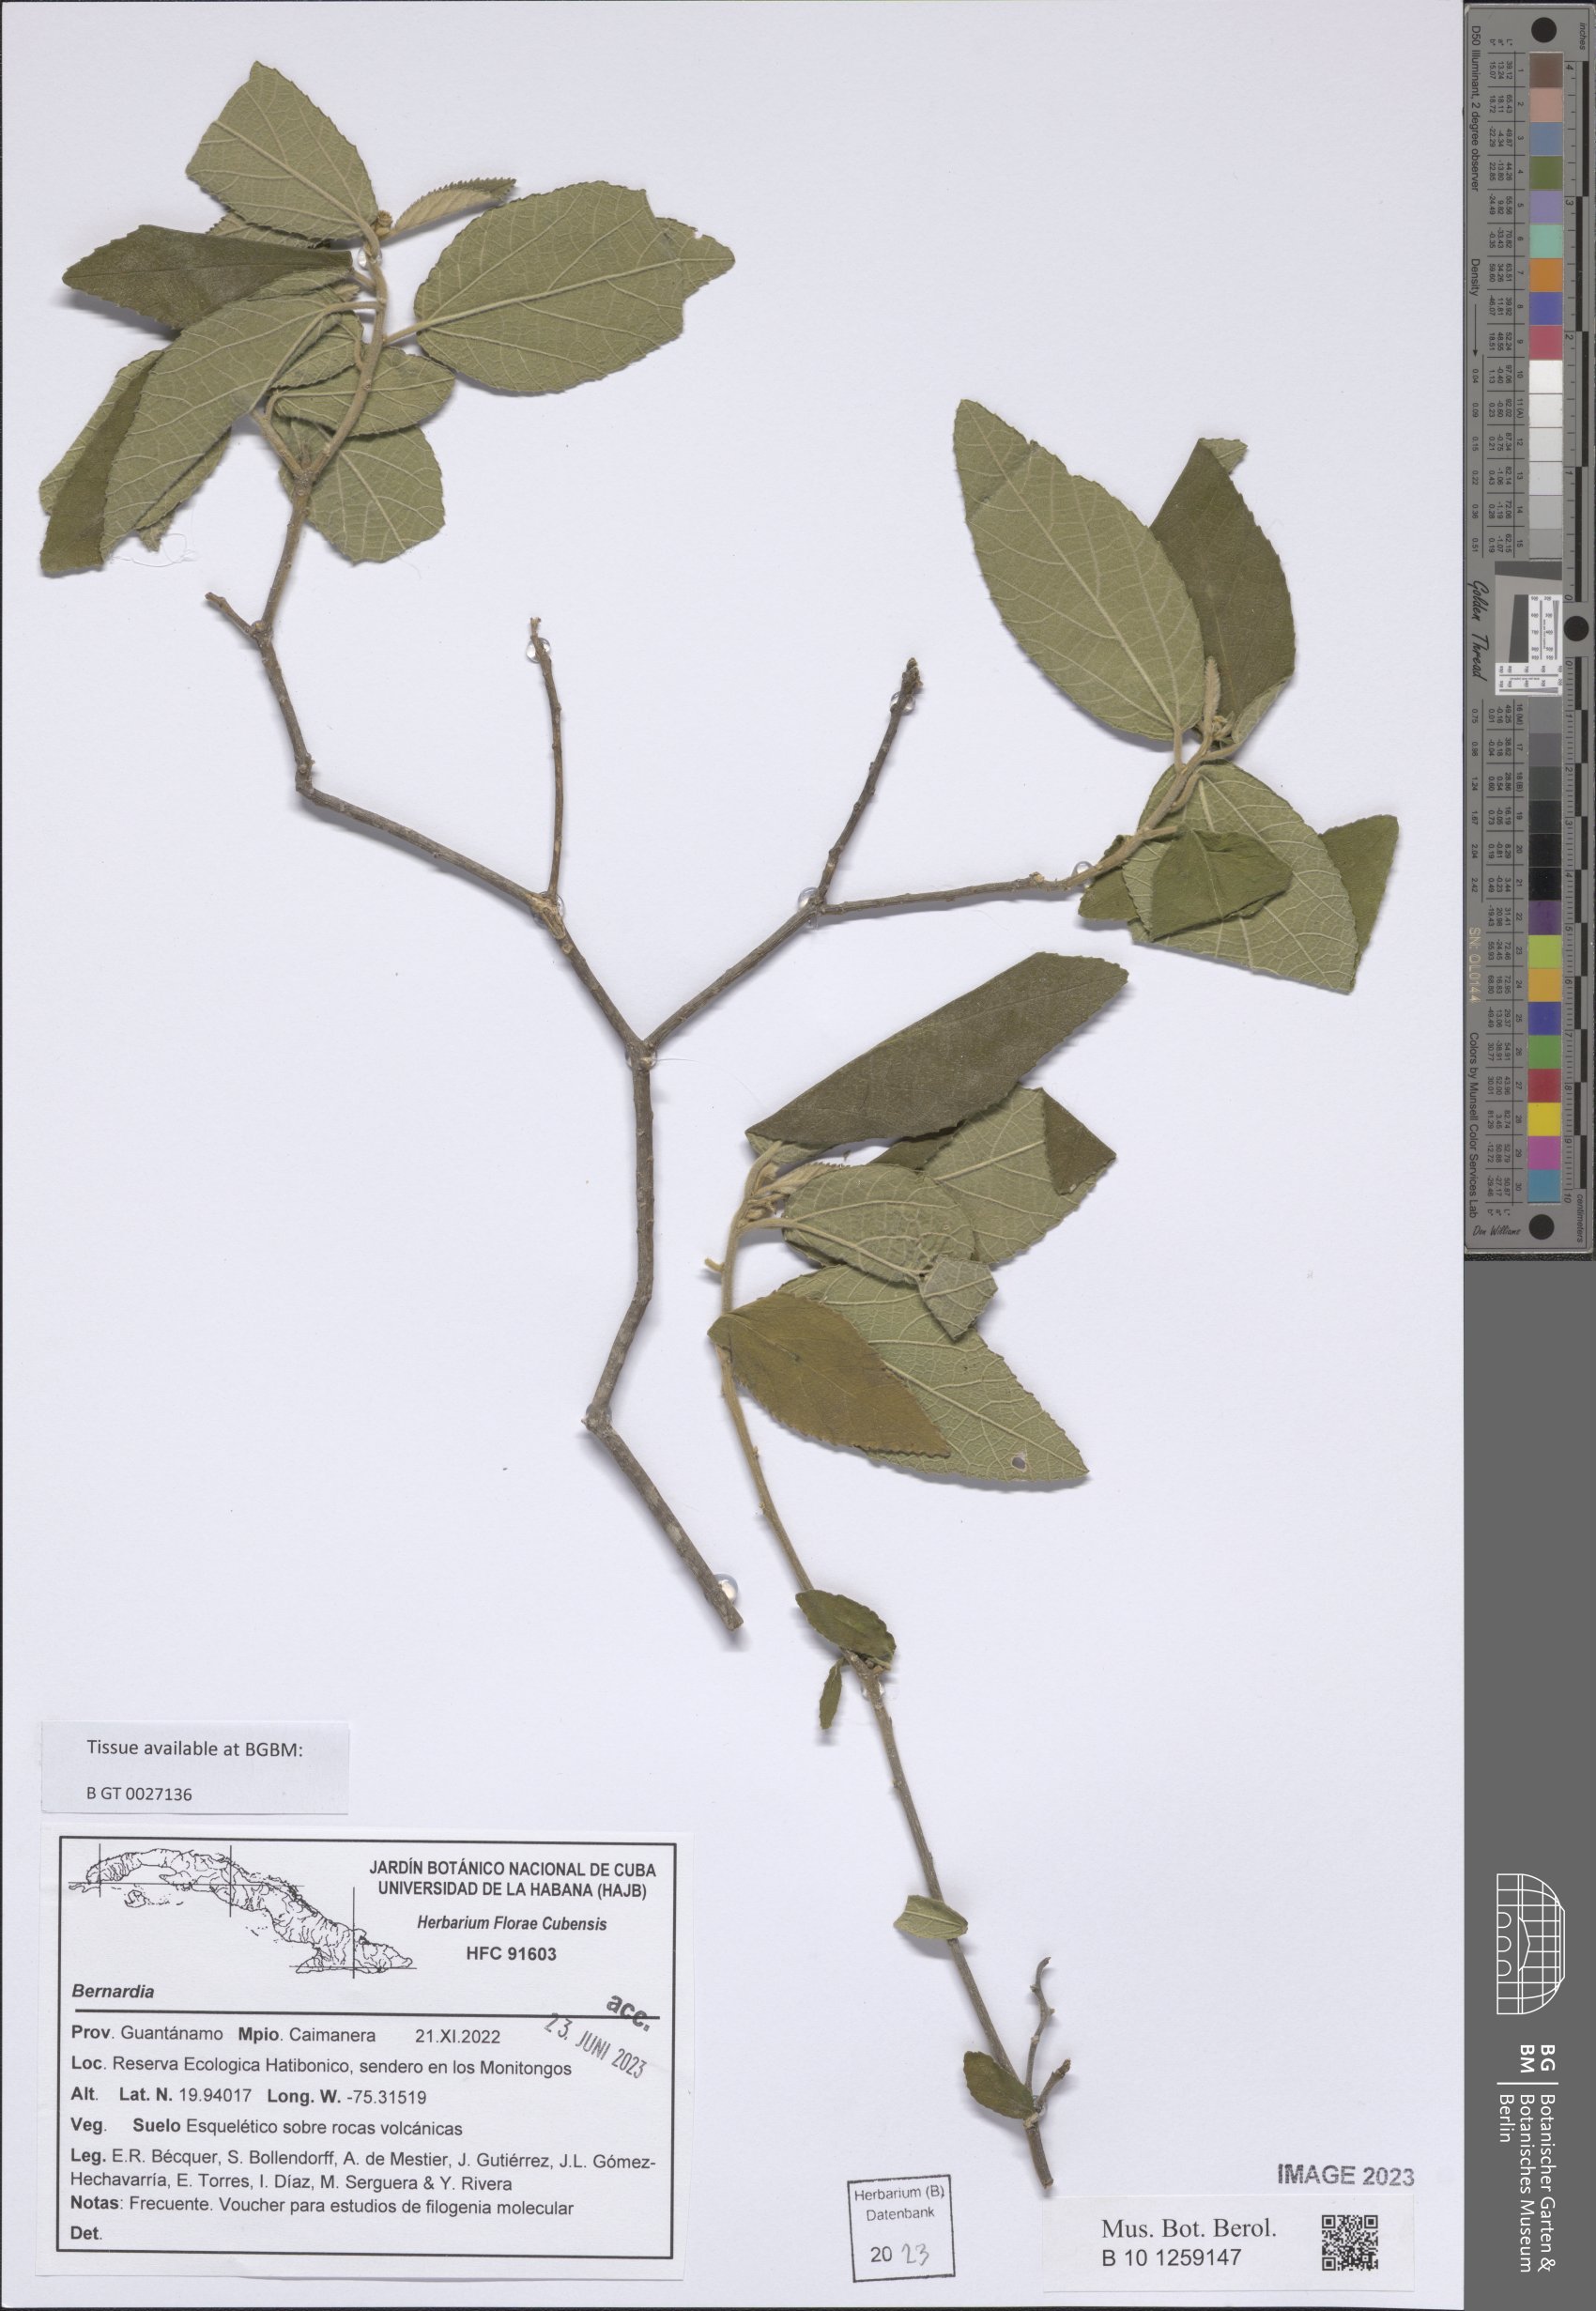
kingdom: Plantae
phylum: Tracheophyta
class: Magnoliopsida
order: Malpighiales
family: Euphorbiaceae
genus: Bernardia
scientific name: Bernardia
